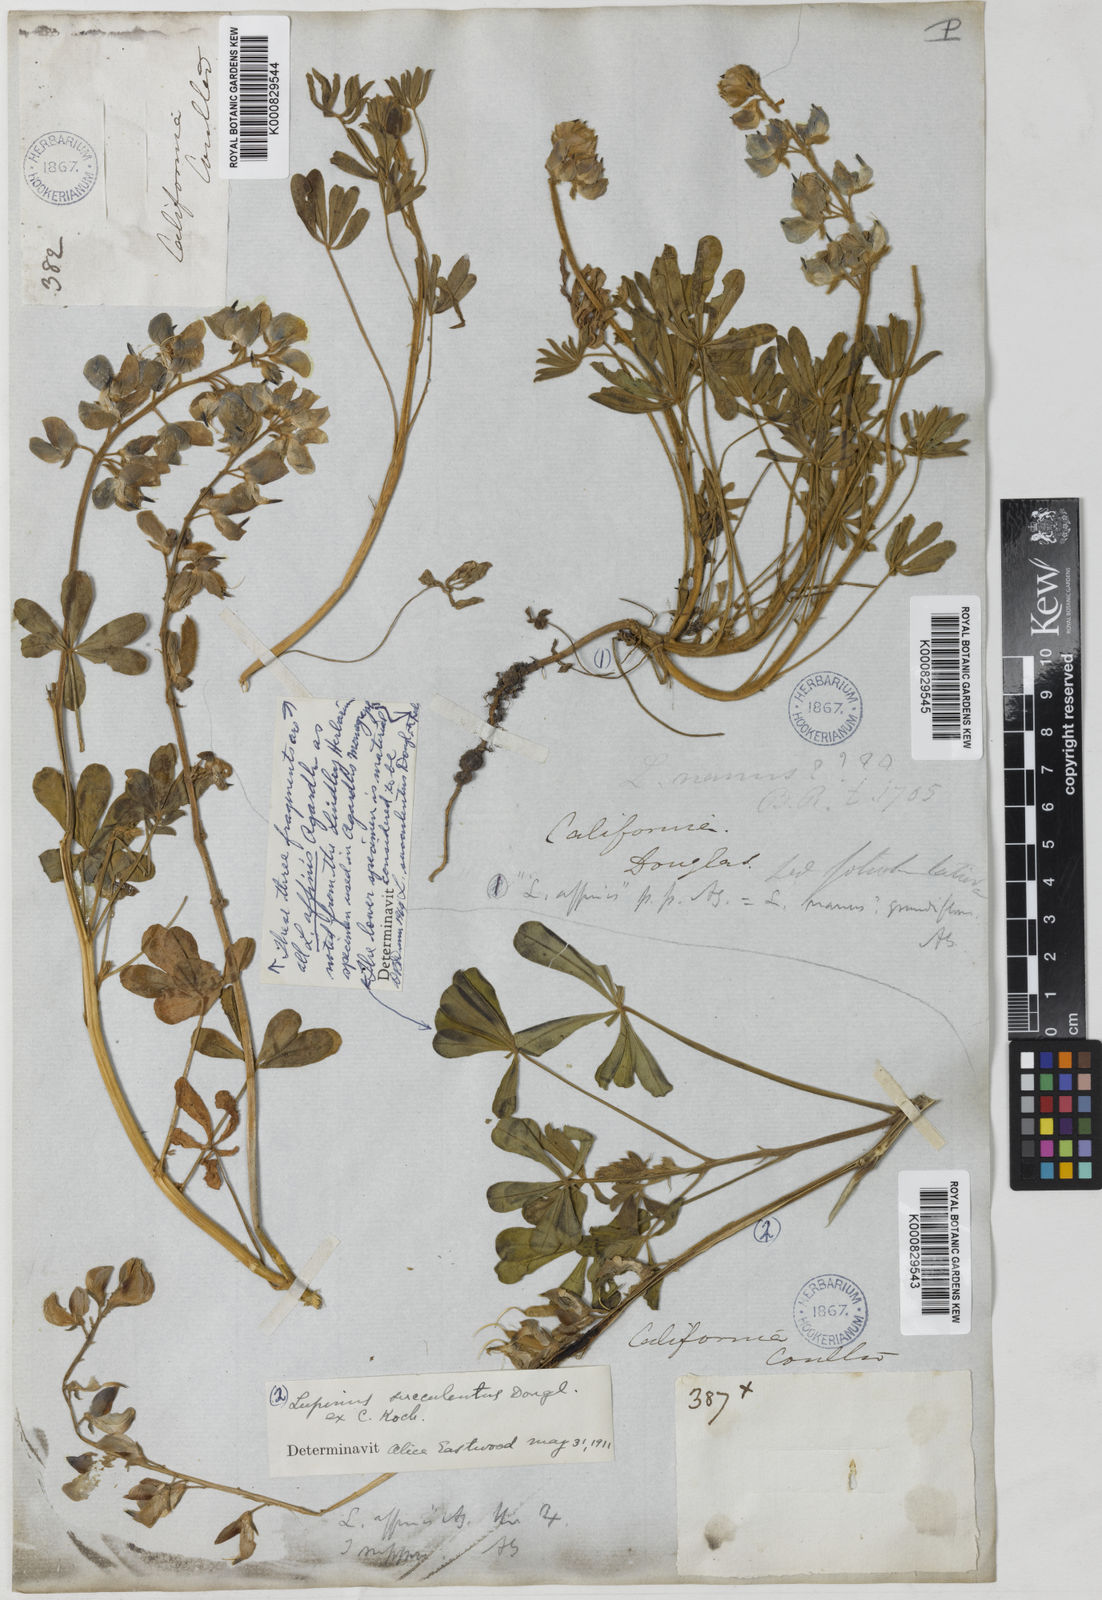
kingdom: Plantae
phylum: Tracheophyta
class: Magnoliopsida
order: Fabales
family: Fabaceae
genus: Lupinus
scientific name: Lupinus succulentus
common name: Arroyo lupine
